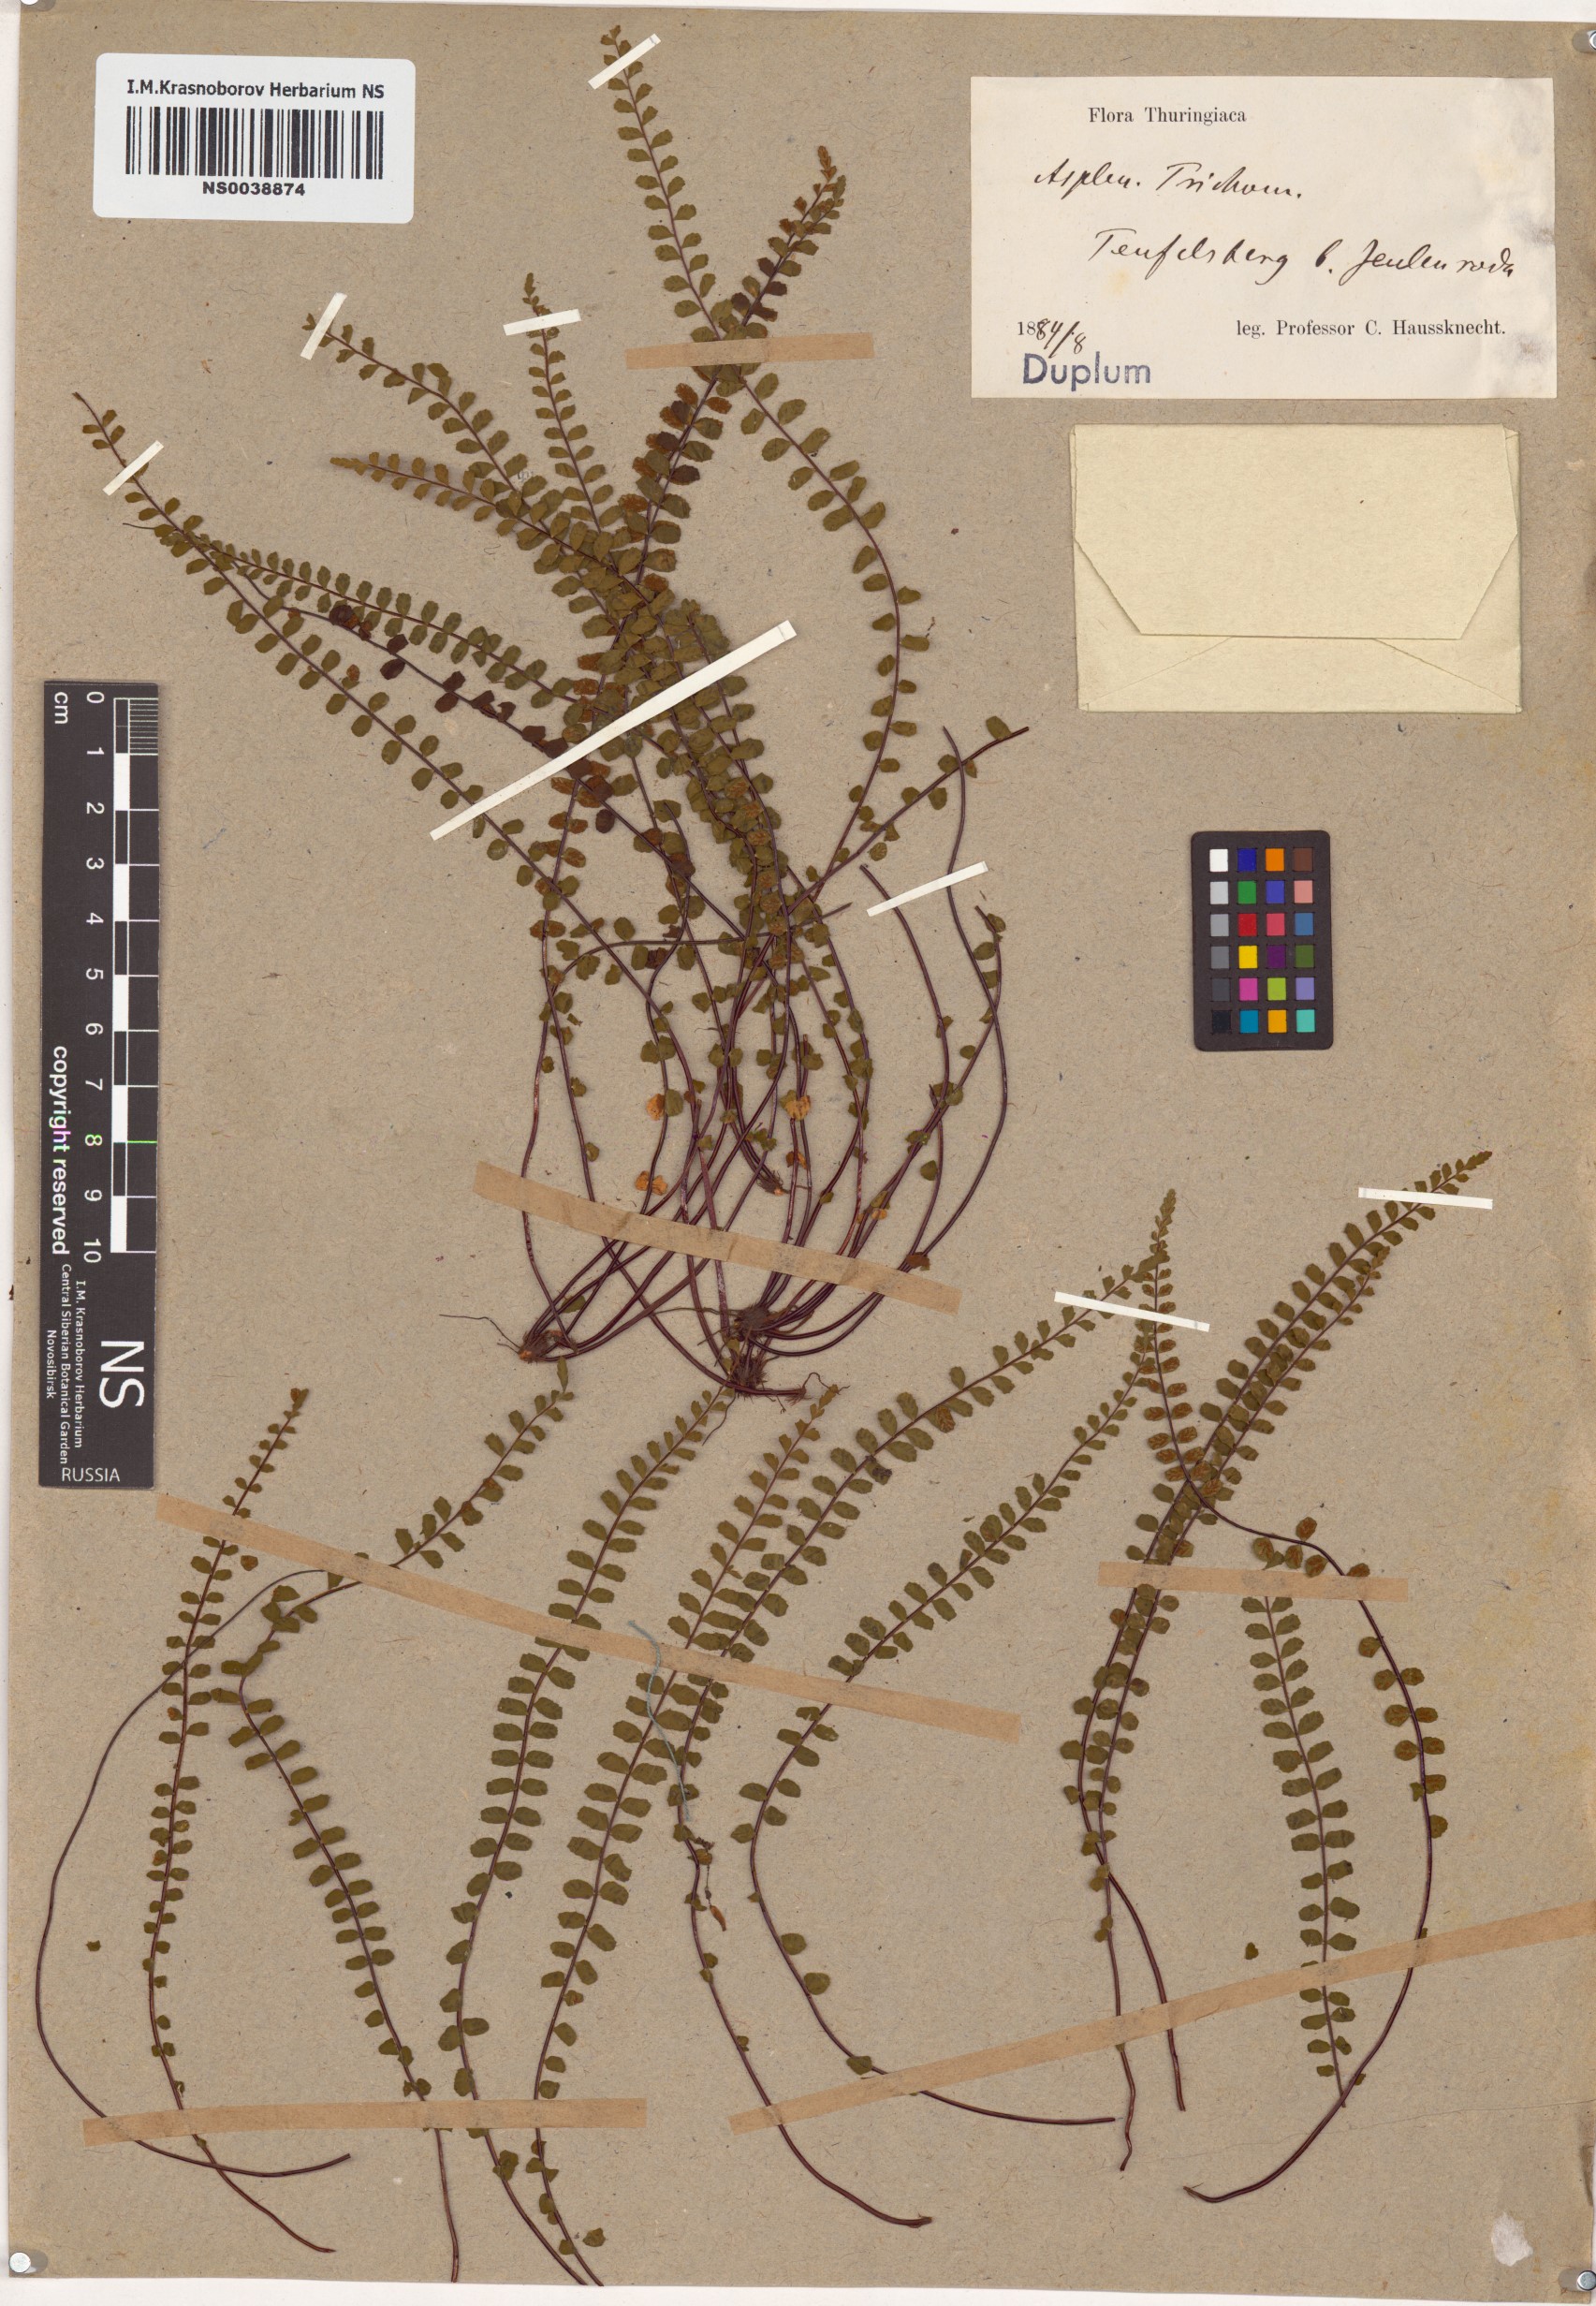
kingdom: Plantae
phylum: Tracheophyta
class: Polypodiopsida
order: Polypodiales
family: Aspleniaceae
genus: Asplenium
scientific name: Asplenium trichomanes
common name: Maidenhair spleenwort
